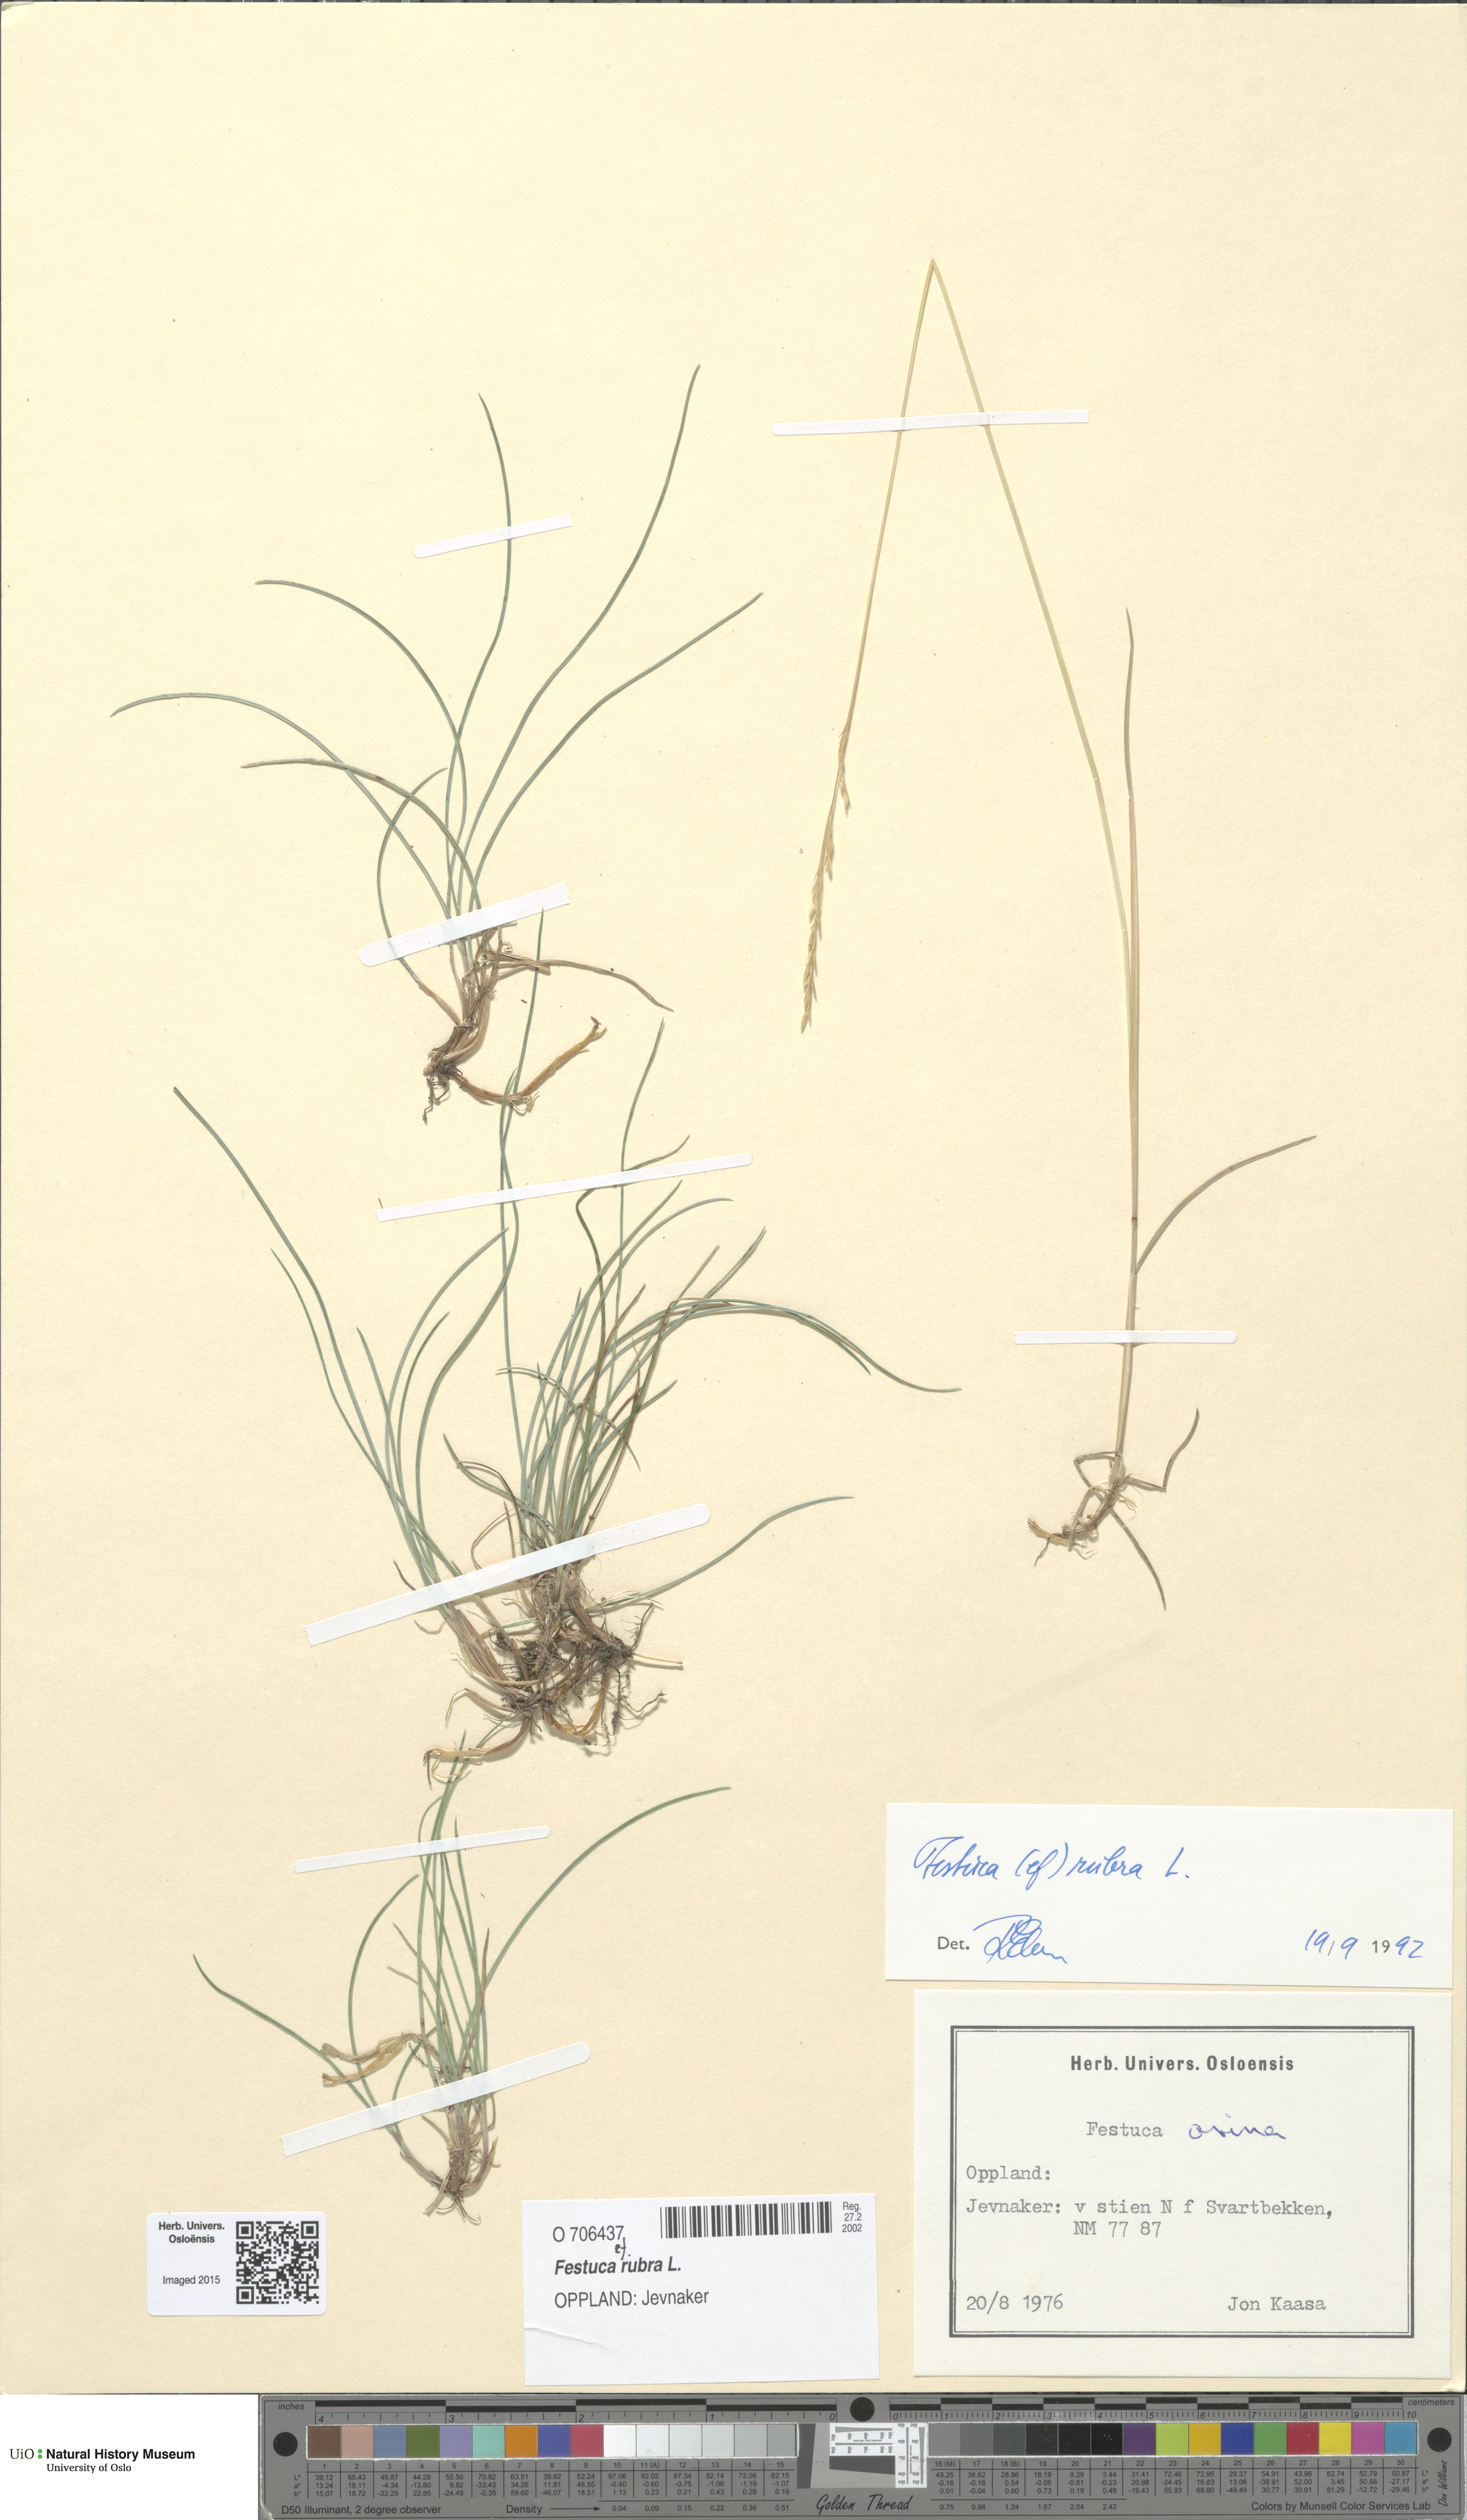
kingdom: Plantae
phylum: Tracheophyta
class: Liliopsida
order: Poales
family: Poaceae
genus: Festuca
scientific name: Festuca rubra
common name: Red fescue
